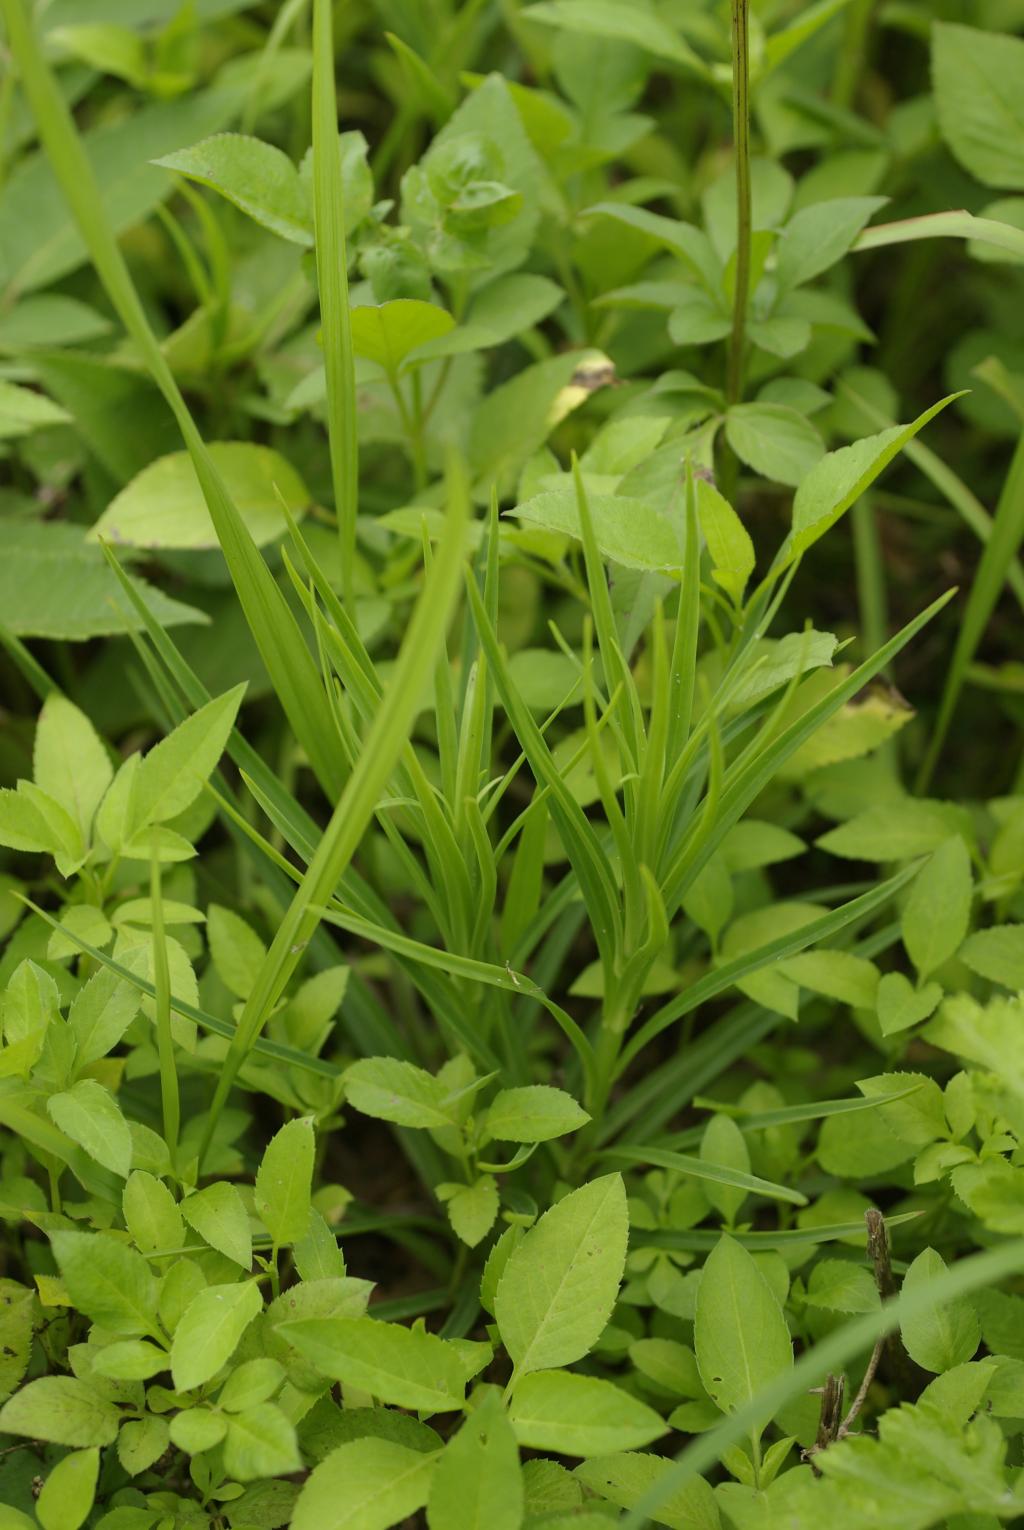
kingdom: Plantae
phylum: Tracheophyta
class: Liliopsida
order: Liliales
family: Liliaceae
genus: Lilium
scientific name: Lilium formosanum
